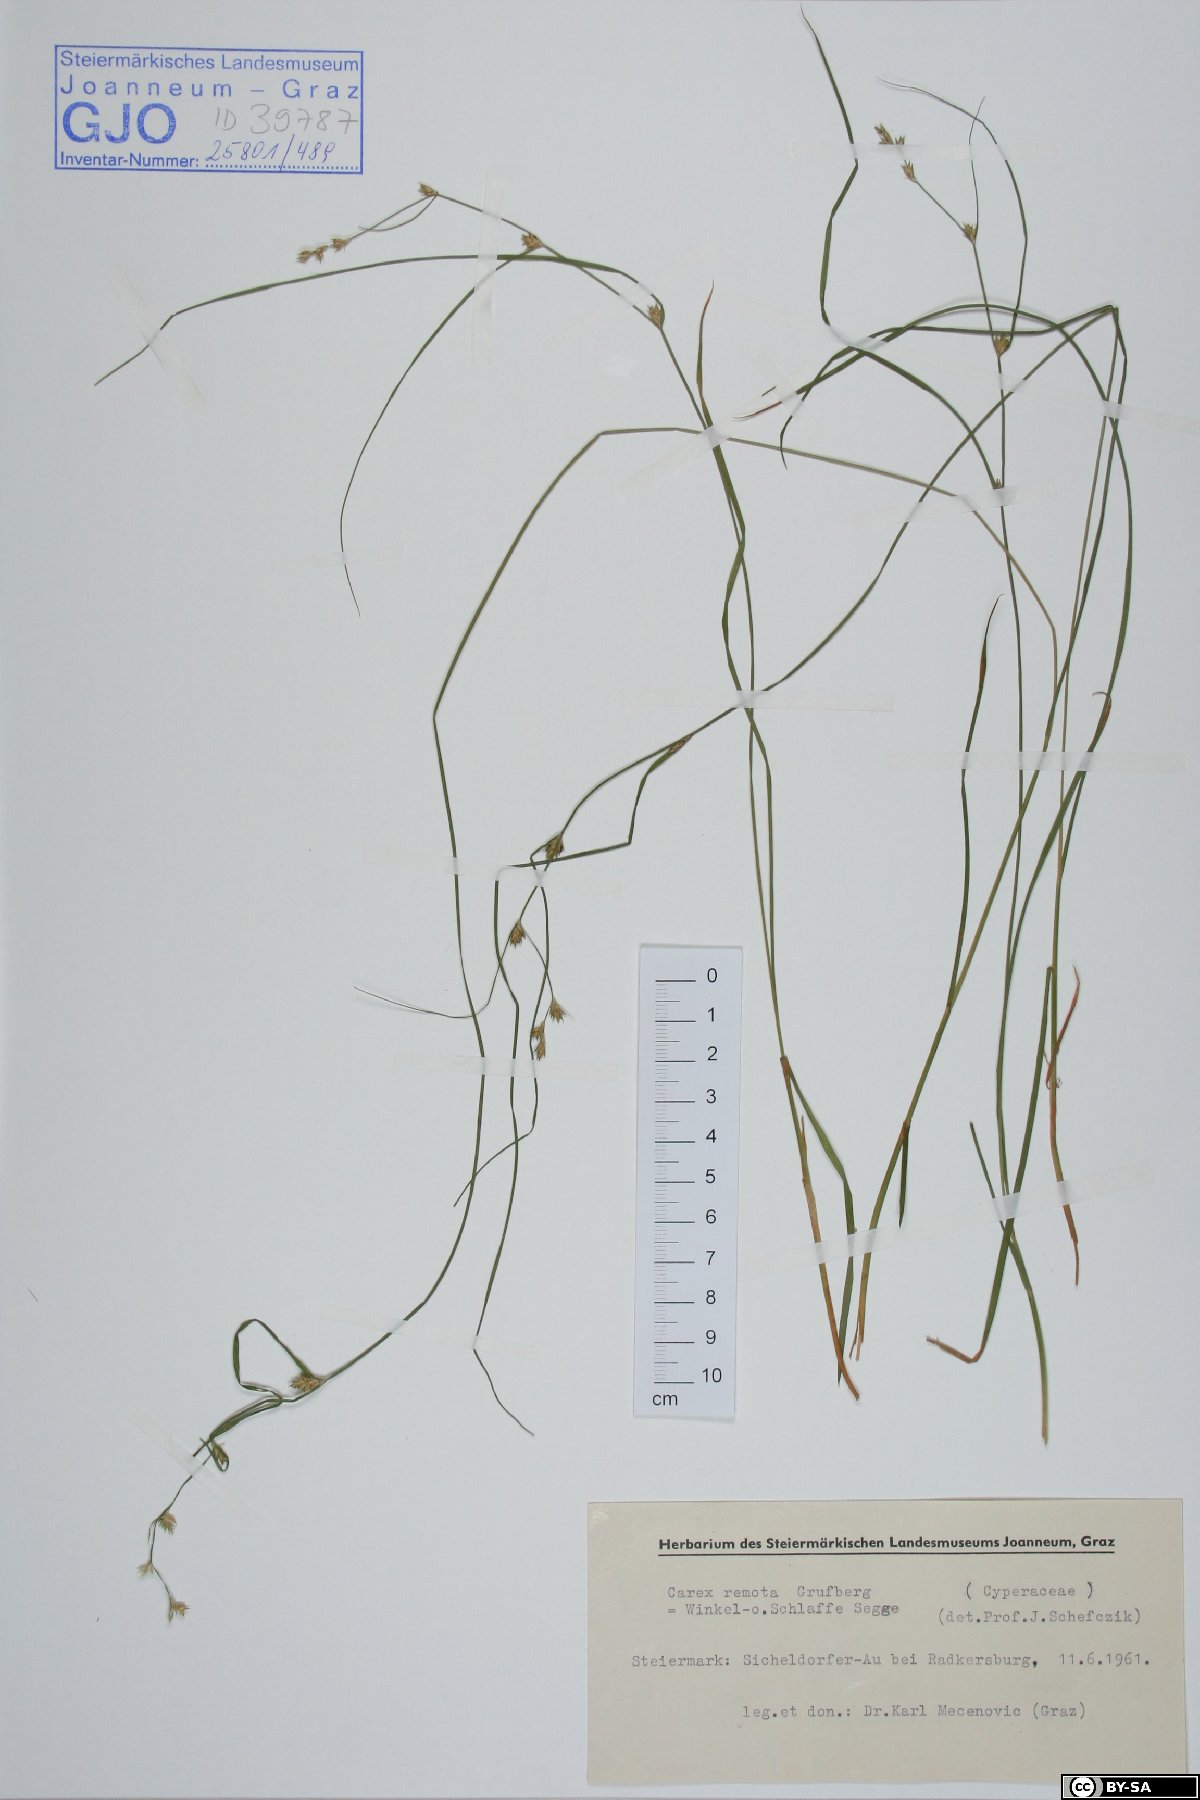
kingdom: Plantae
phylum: Tracheophyta
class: Liliopsida
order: Poales
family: Cyperaceae
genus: Carex
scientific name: Carex remota
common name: Remote sedge
